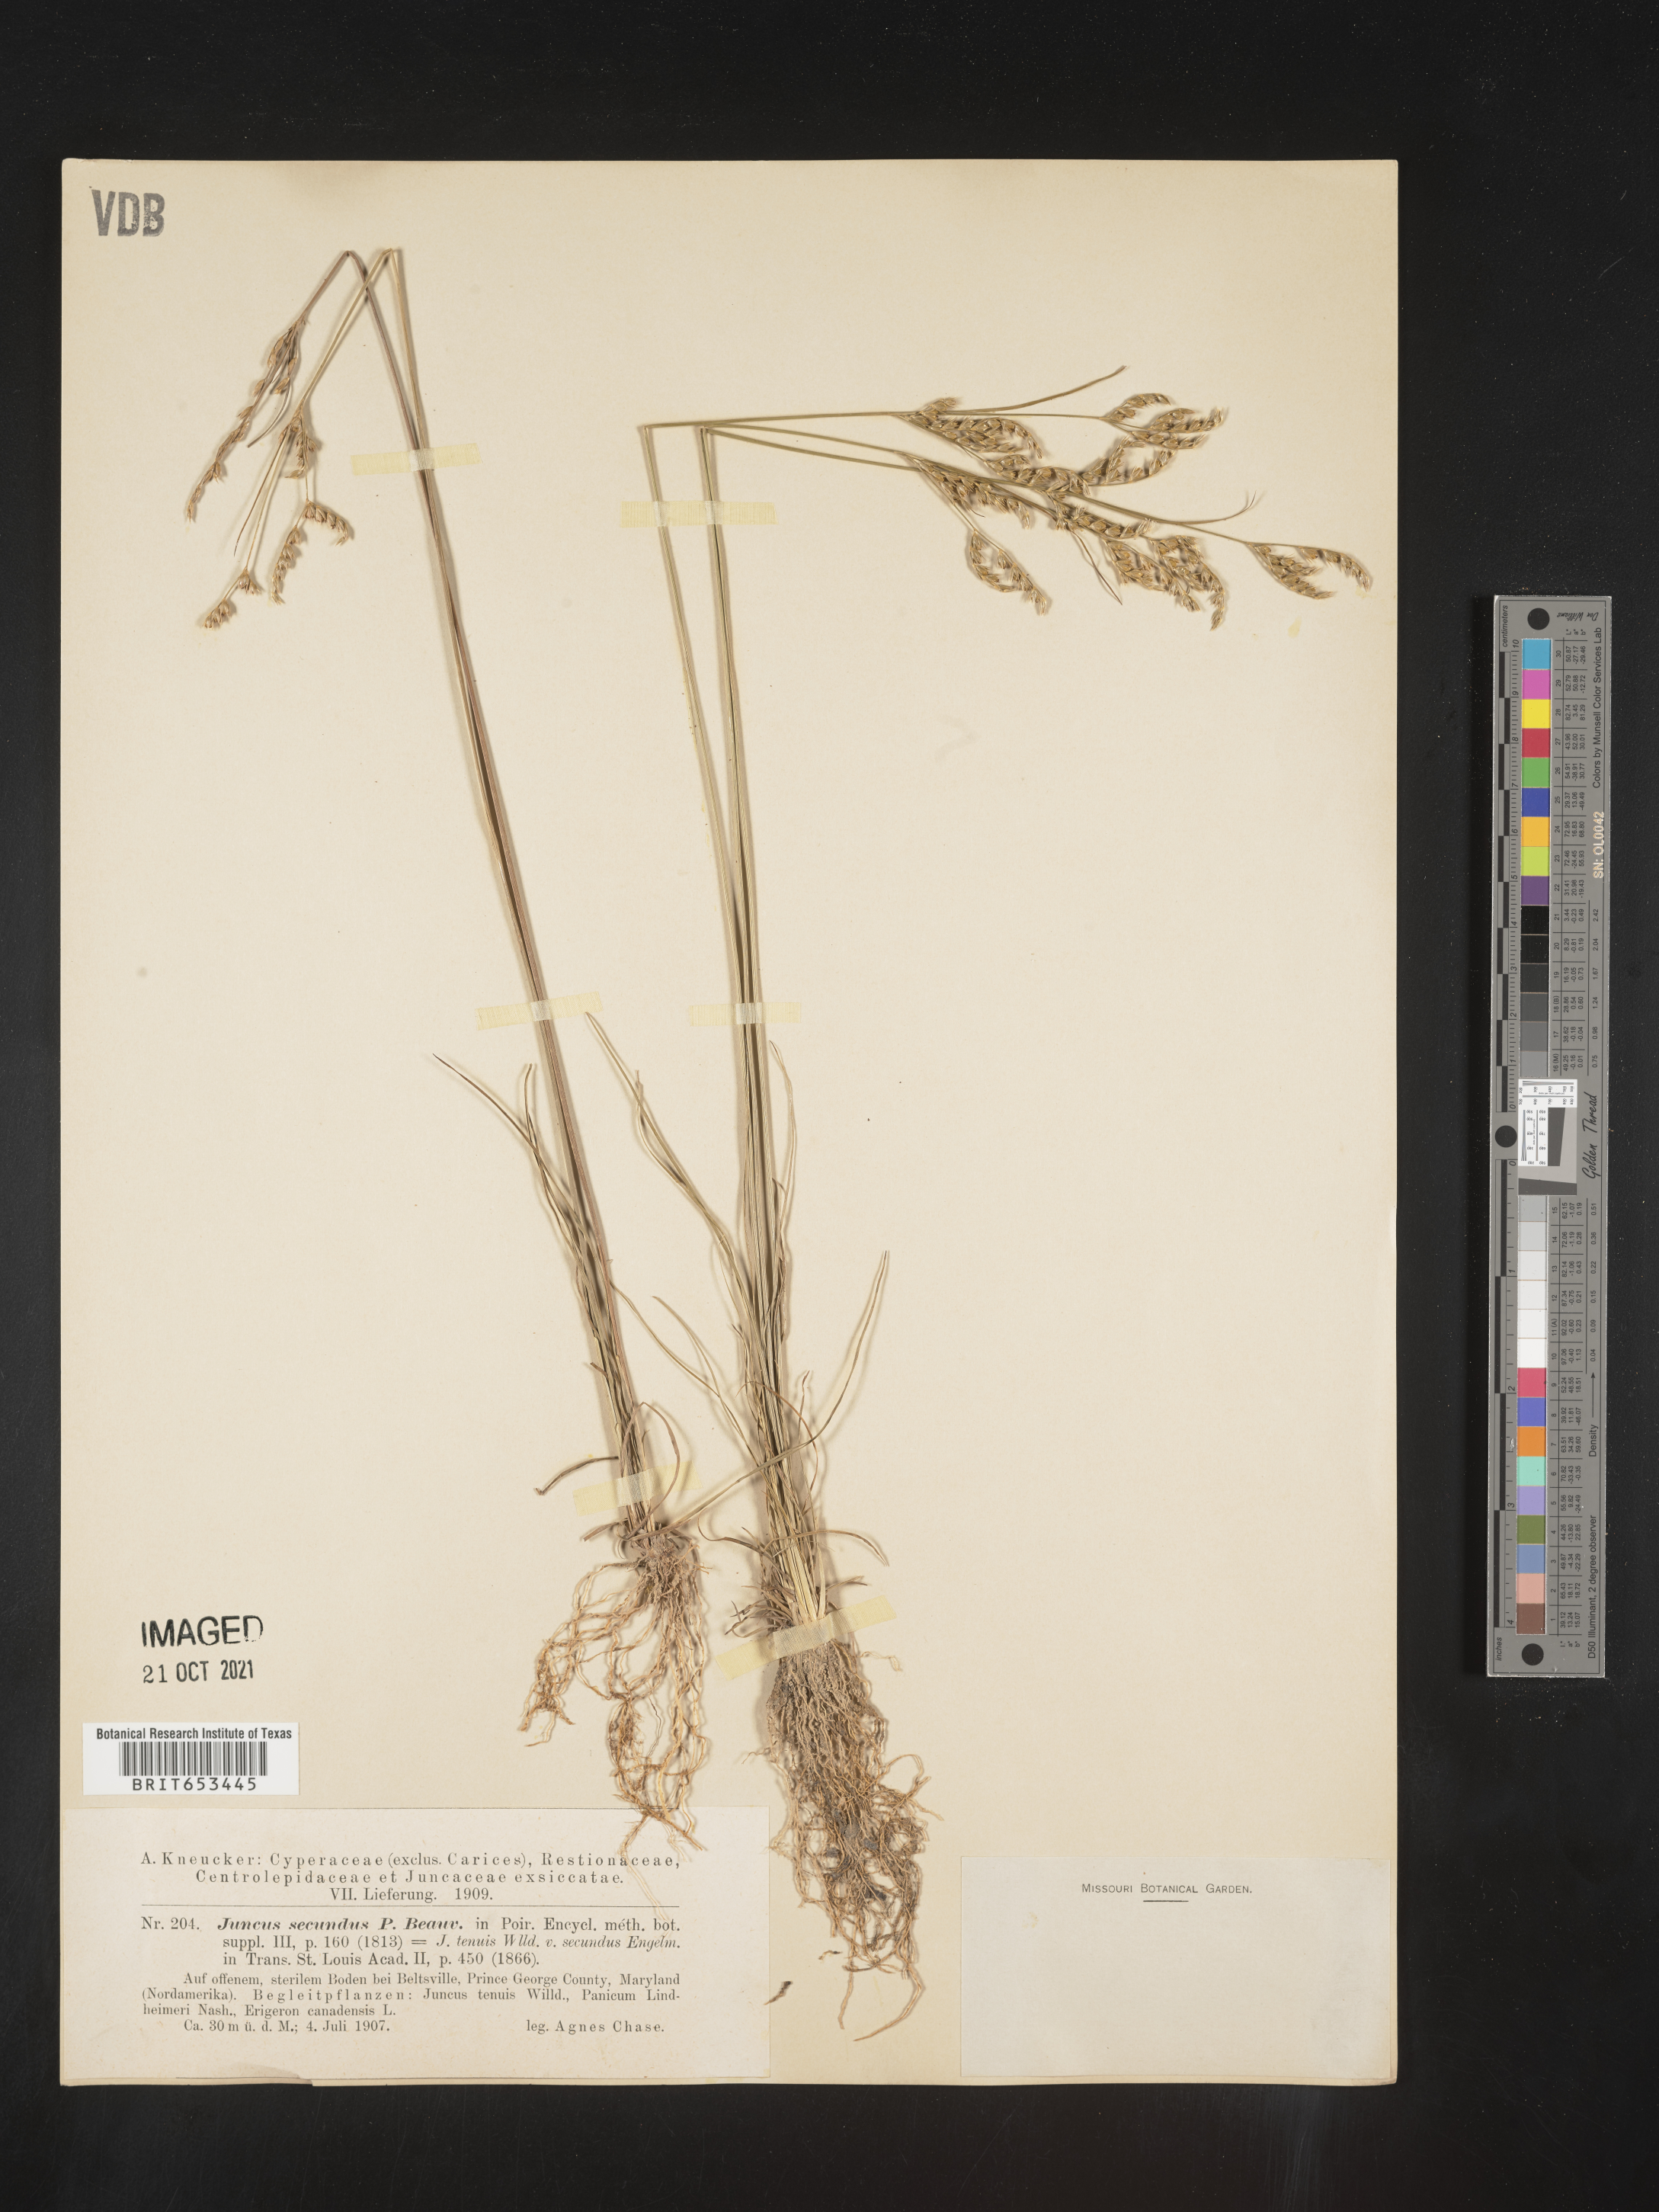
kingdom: Plantae
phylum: Tracheophyta
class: Liliopsida
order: Poales
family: Juncaceae
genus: Juncus
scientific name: Juncus secundus
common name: Lopsided rush
